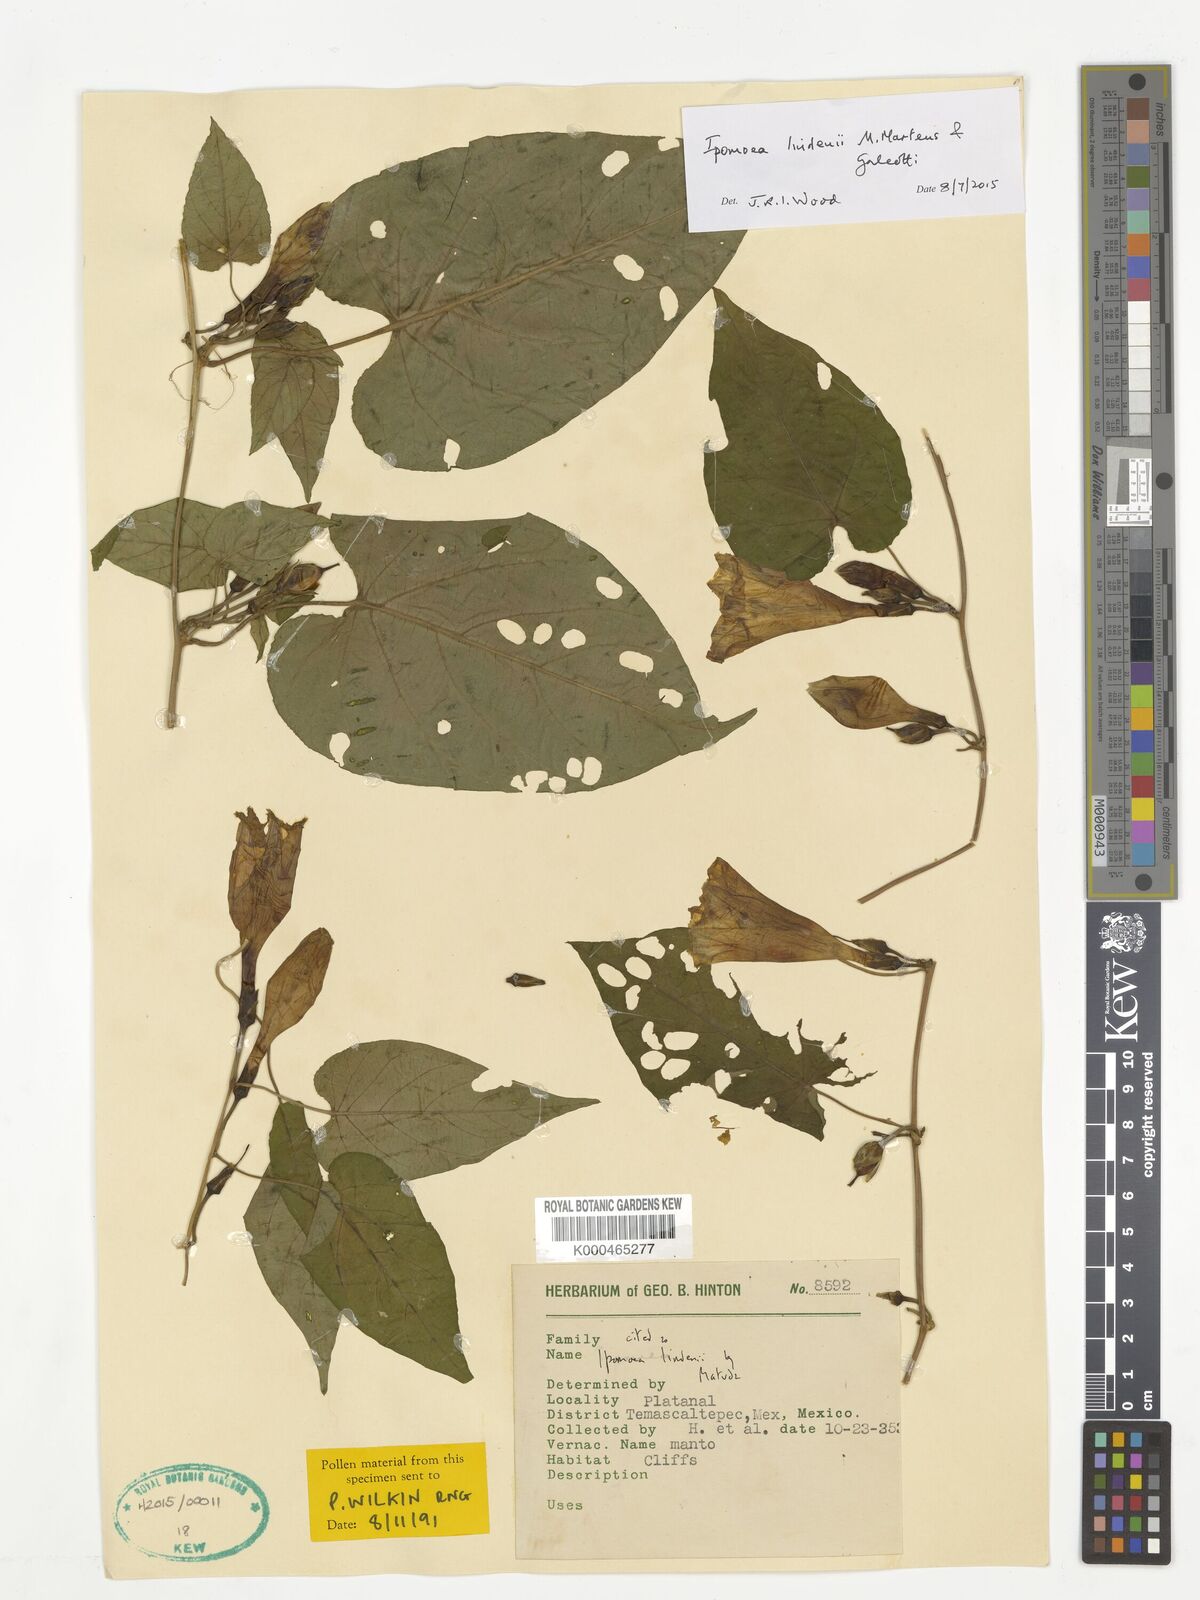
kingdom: Plantae
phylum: Tracheophyta
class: Magnoliopsida
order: Solanales
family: Convolvulaceae
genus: Ipomoea
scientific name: Ipomoea lindenii
